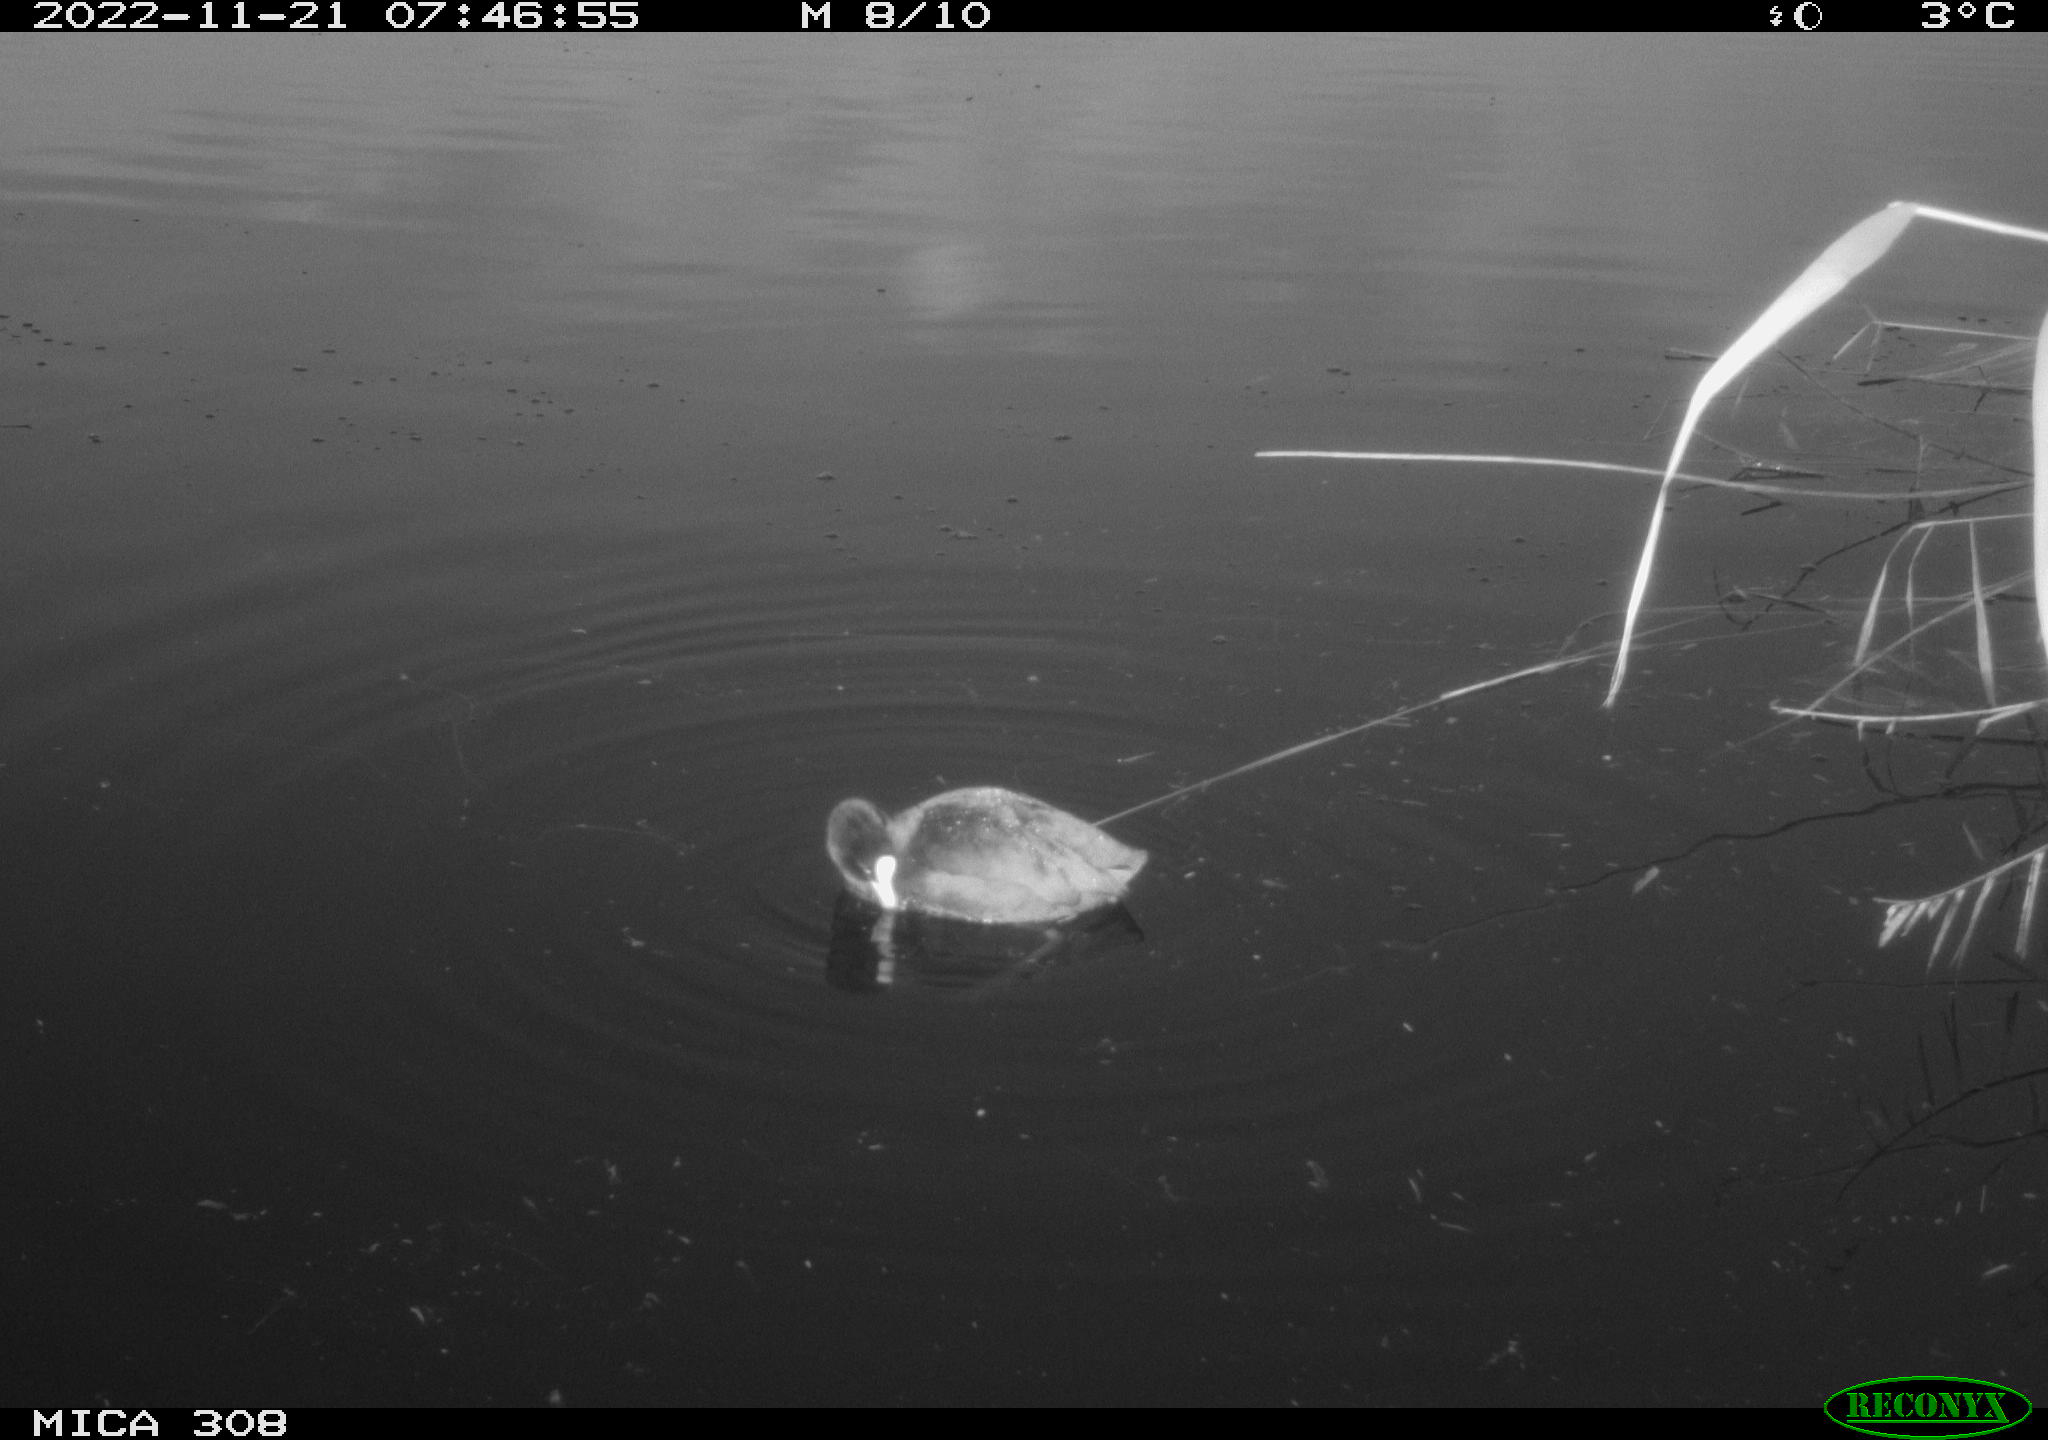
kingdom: Animalia
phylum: Chordata
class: Aves
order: Gruiformes
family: Rallidae
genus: Fulica
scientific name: Fulica atra
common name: Eurasian coot
